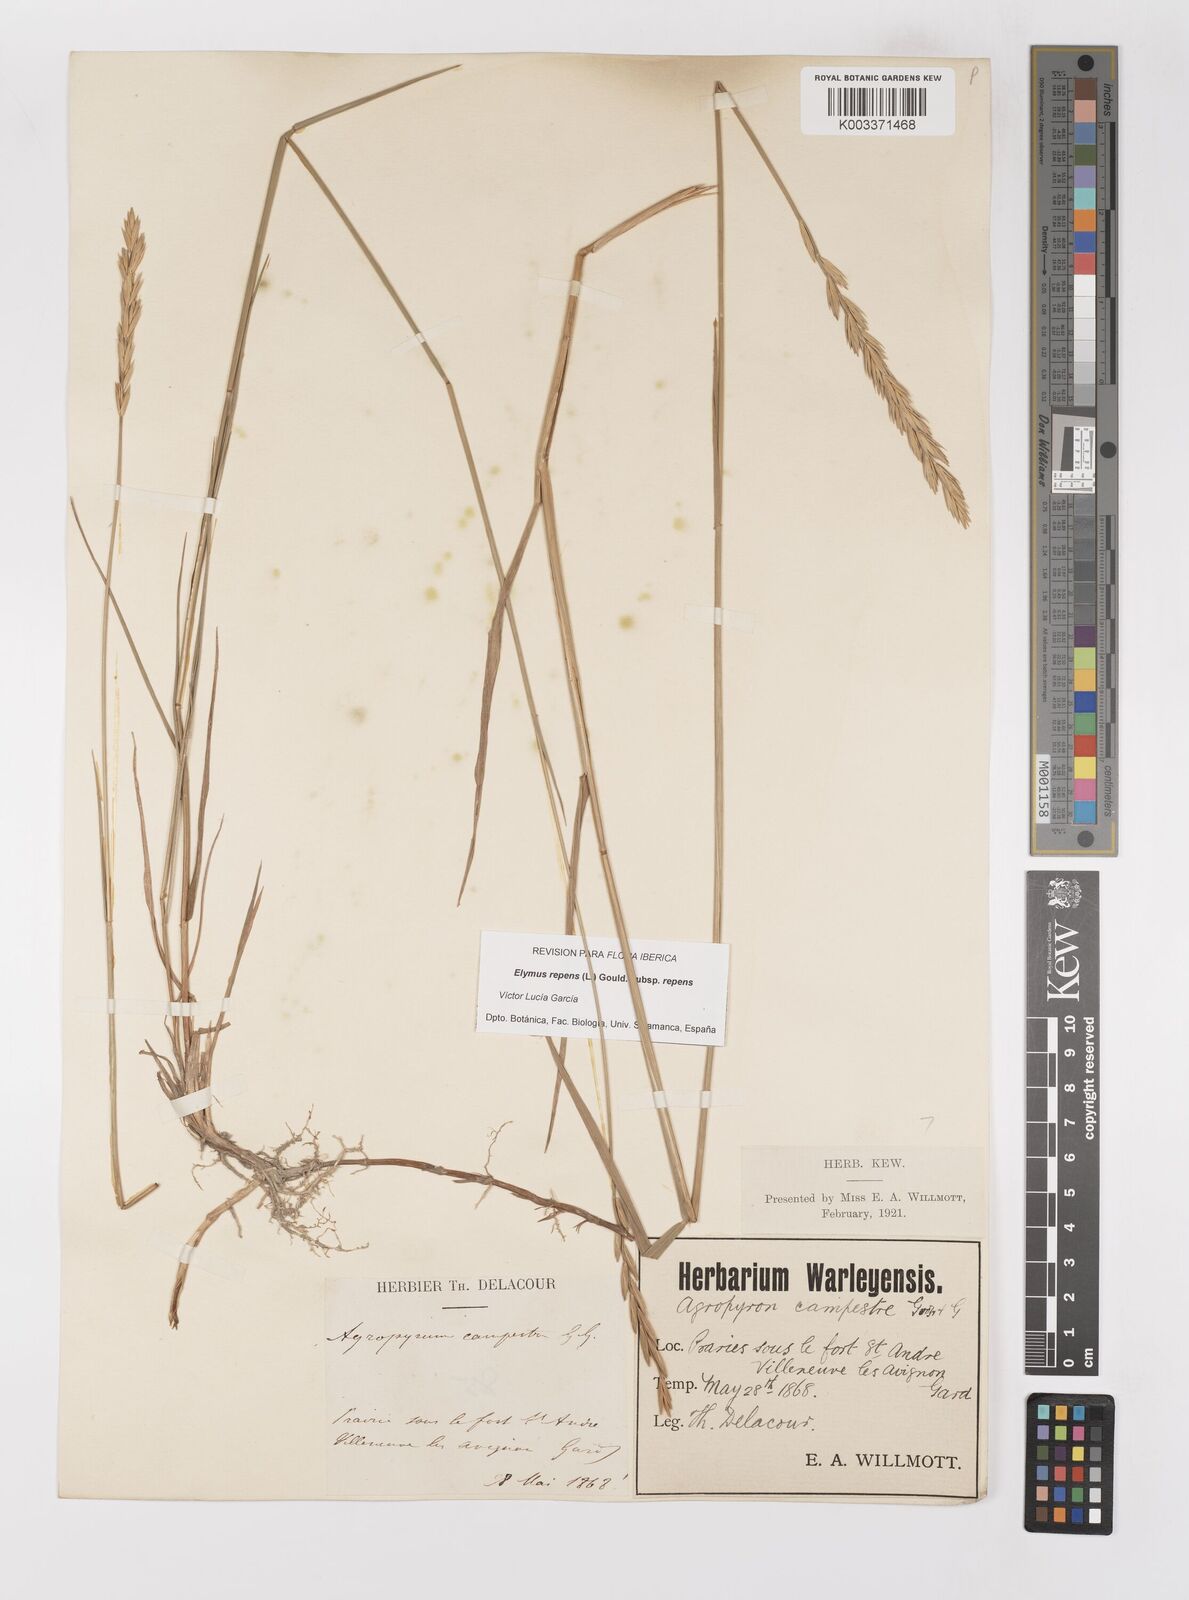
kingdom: Plantae
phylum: Tracheophyta
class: Liliopsida
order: Poales
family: Poaceae
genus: Elymus
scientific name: Elymus repens
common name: Quackgrass
